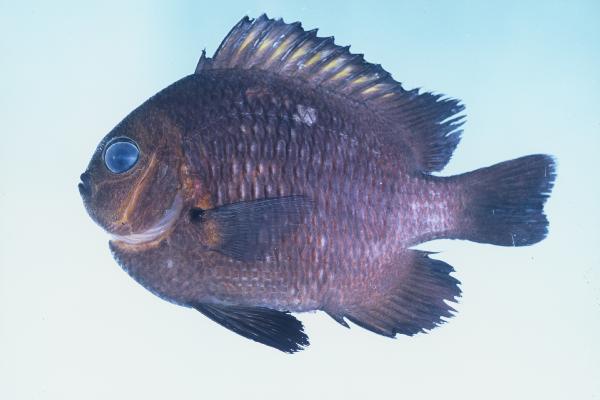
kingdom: Animalia
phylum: Chordata
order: Perciformes
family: Pomacentridae
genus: Dascyllus
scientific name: Dascyllus trimaculatus
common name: Threespot dascyllus
